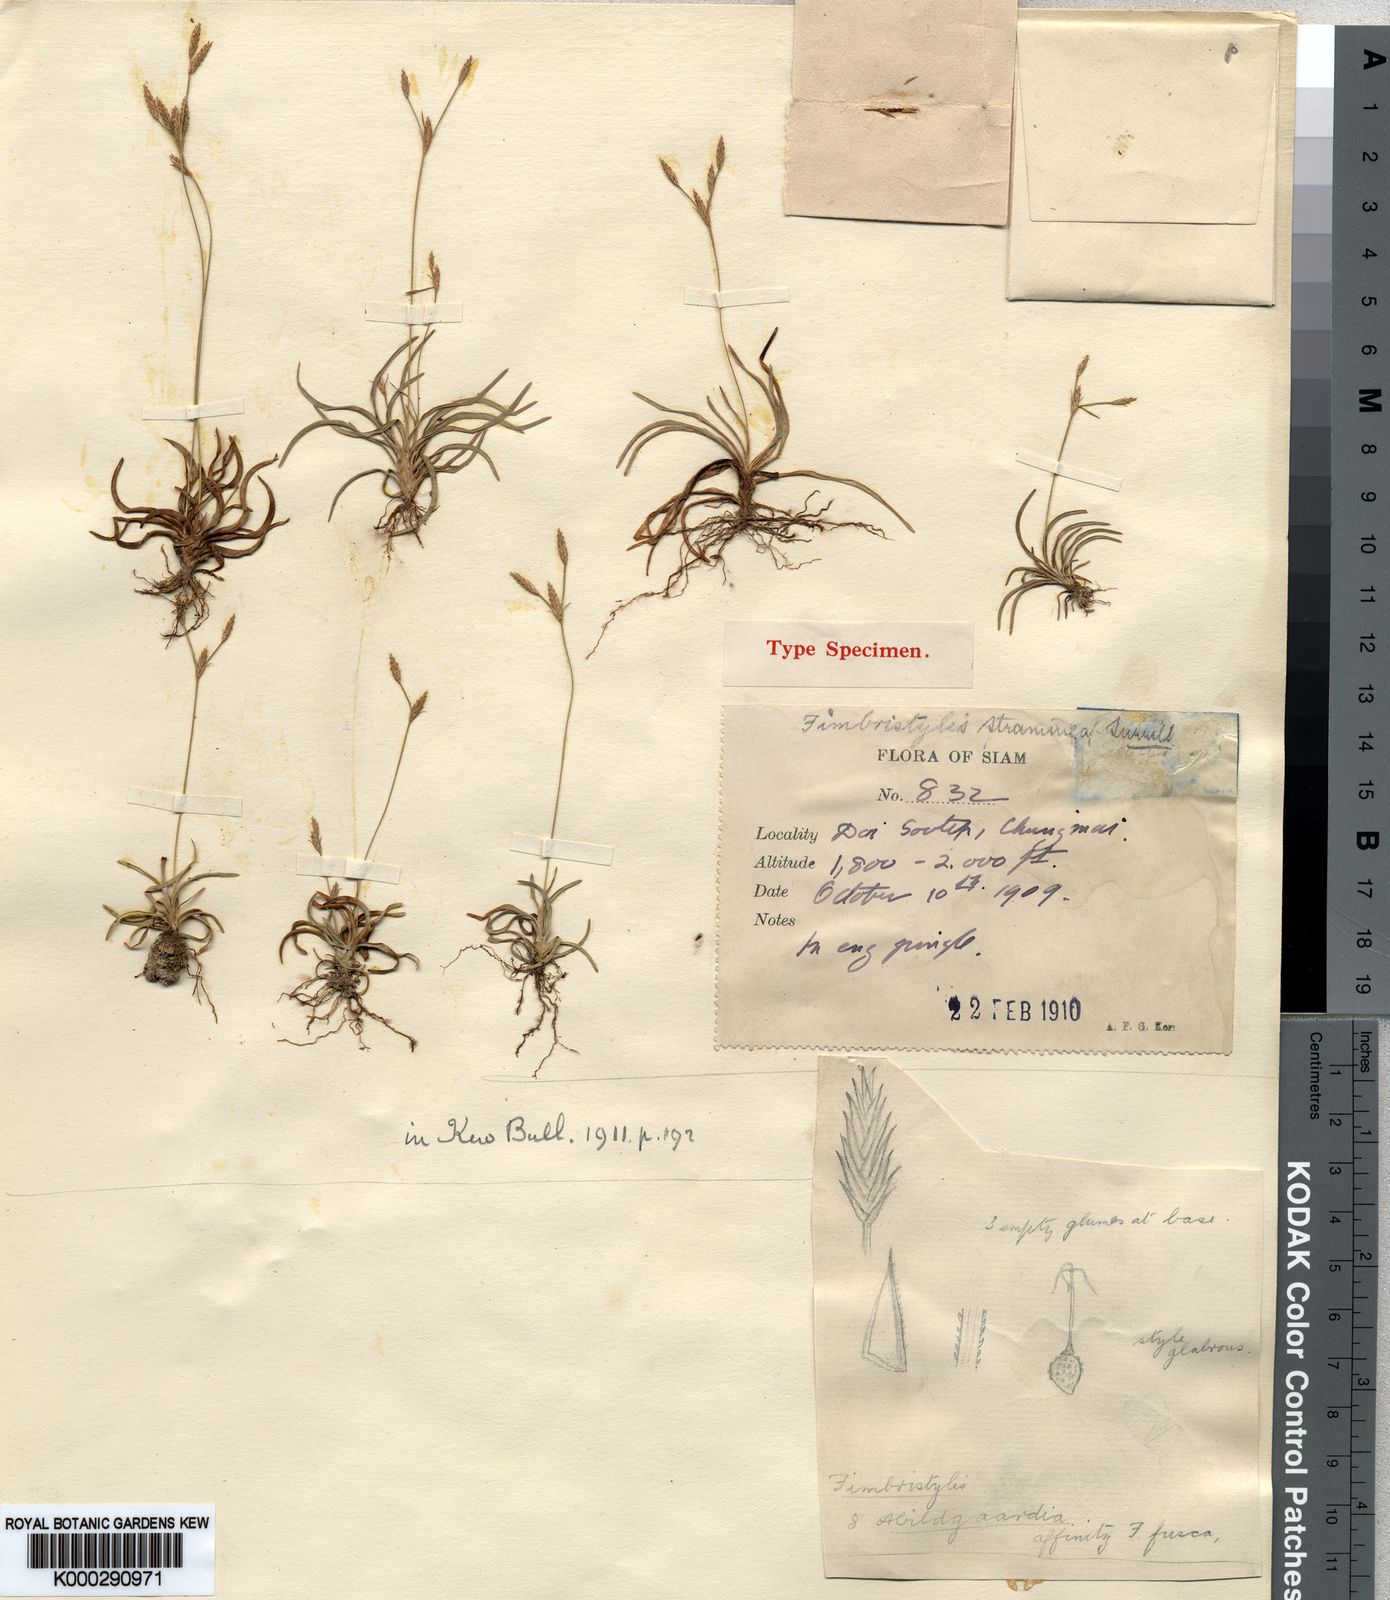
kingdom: Plantae
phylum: Tracheophyta
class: Liliopsida
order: Poales
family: Cyperaceae
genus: Fimbristylis
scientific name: Fimbristylis straminea
